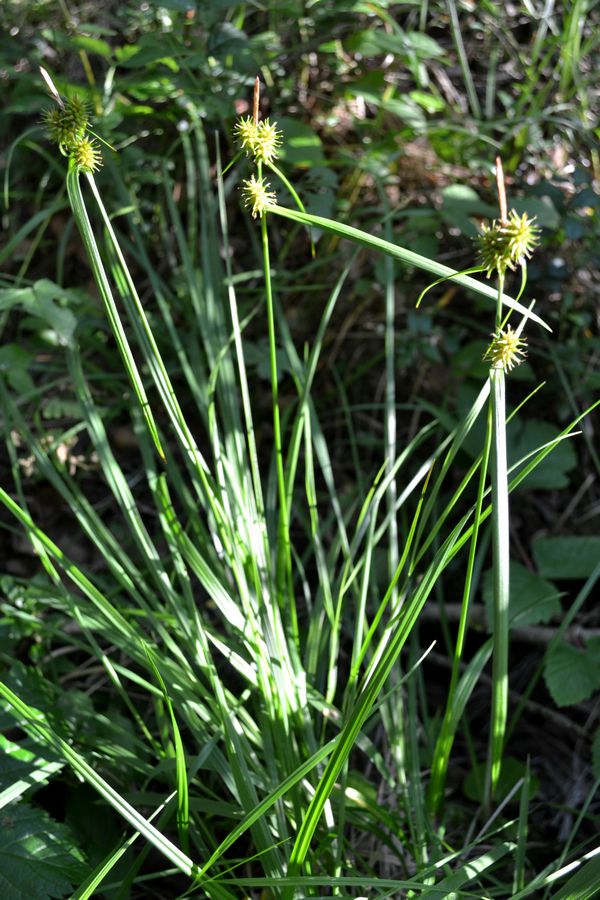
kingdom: Plantae
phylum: Tracheophyta
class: Liliopsida
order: Poales
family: Cyperaceae
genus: Carex
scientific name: Carex flava
